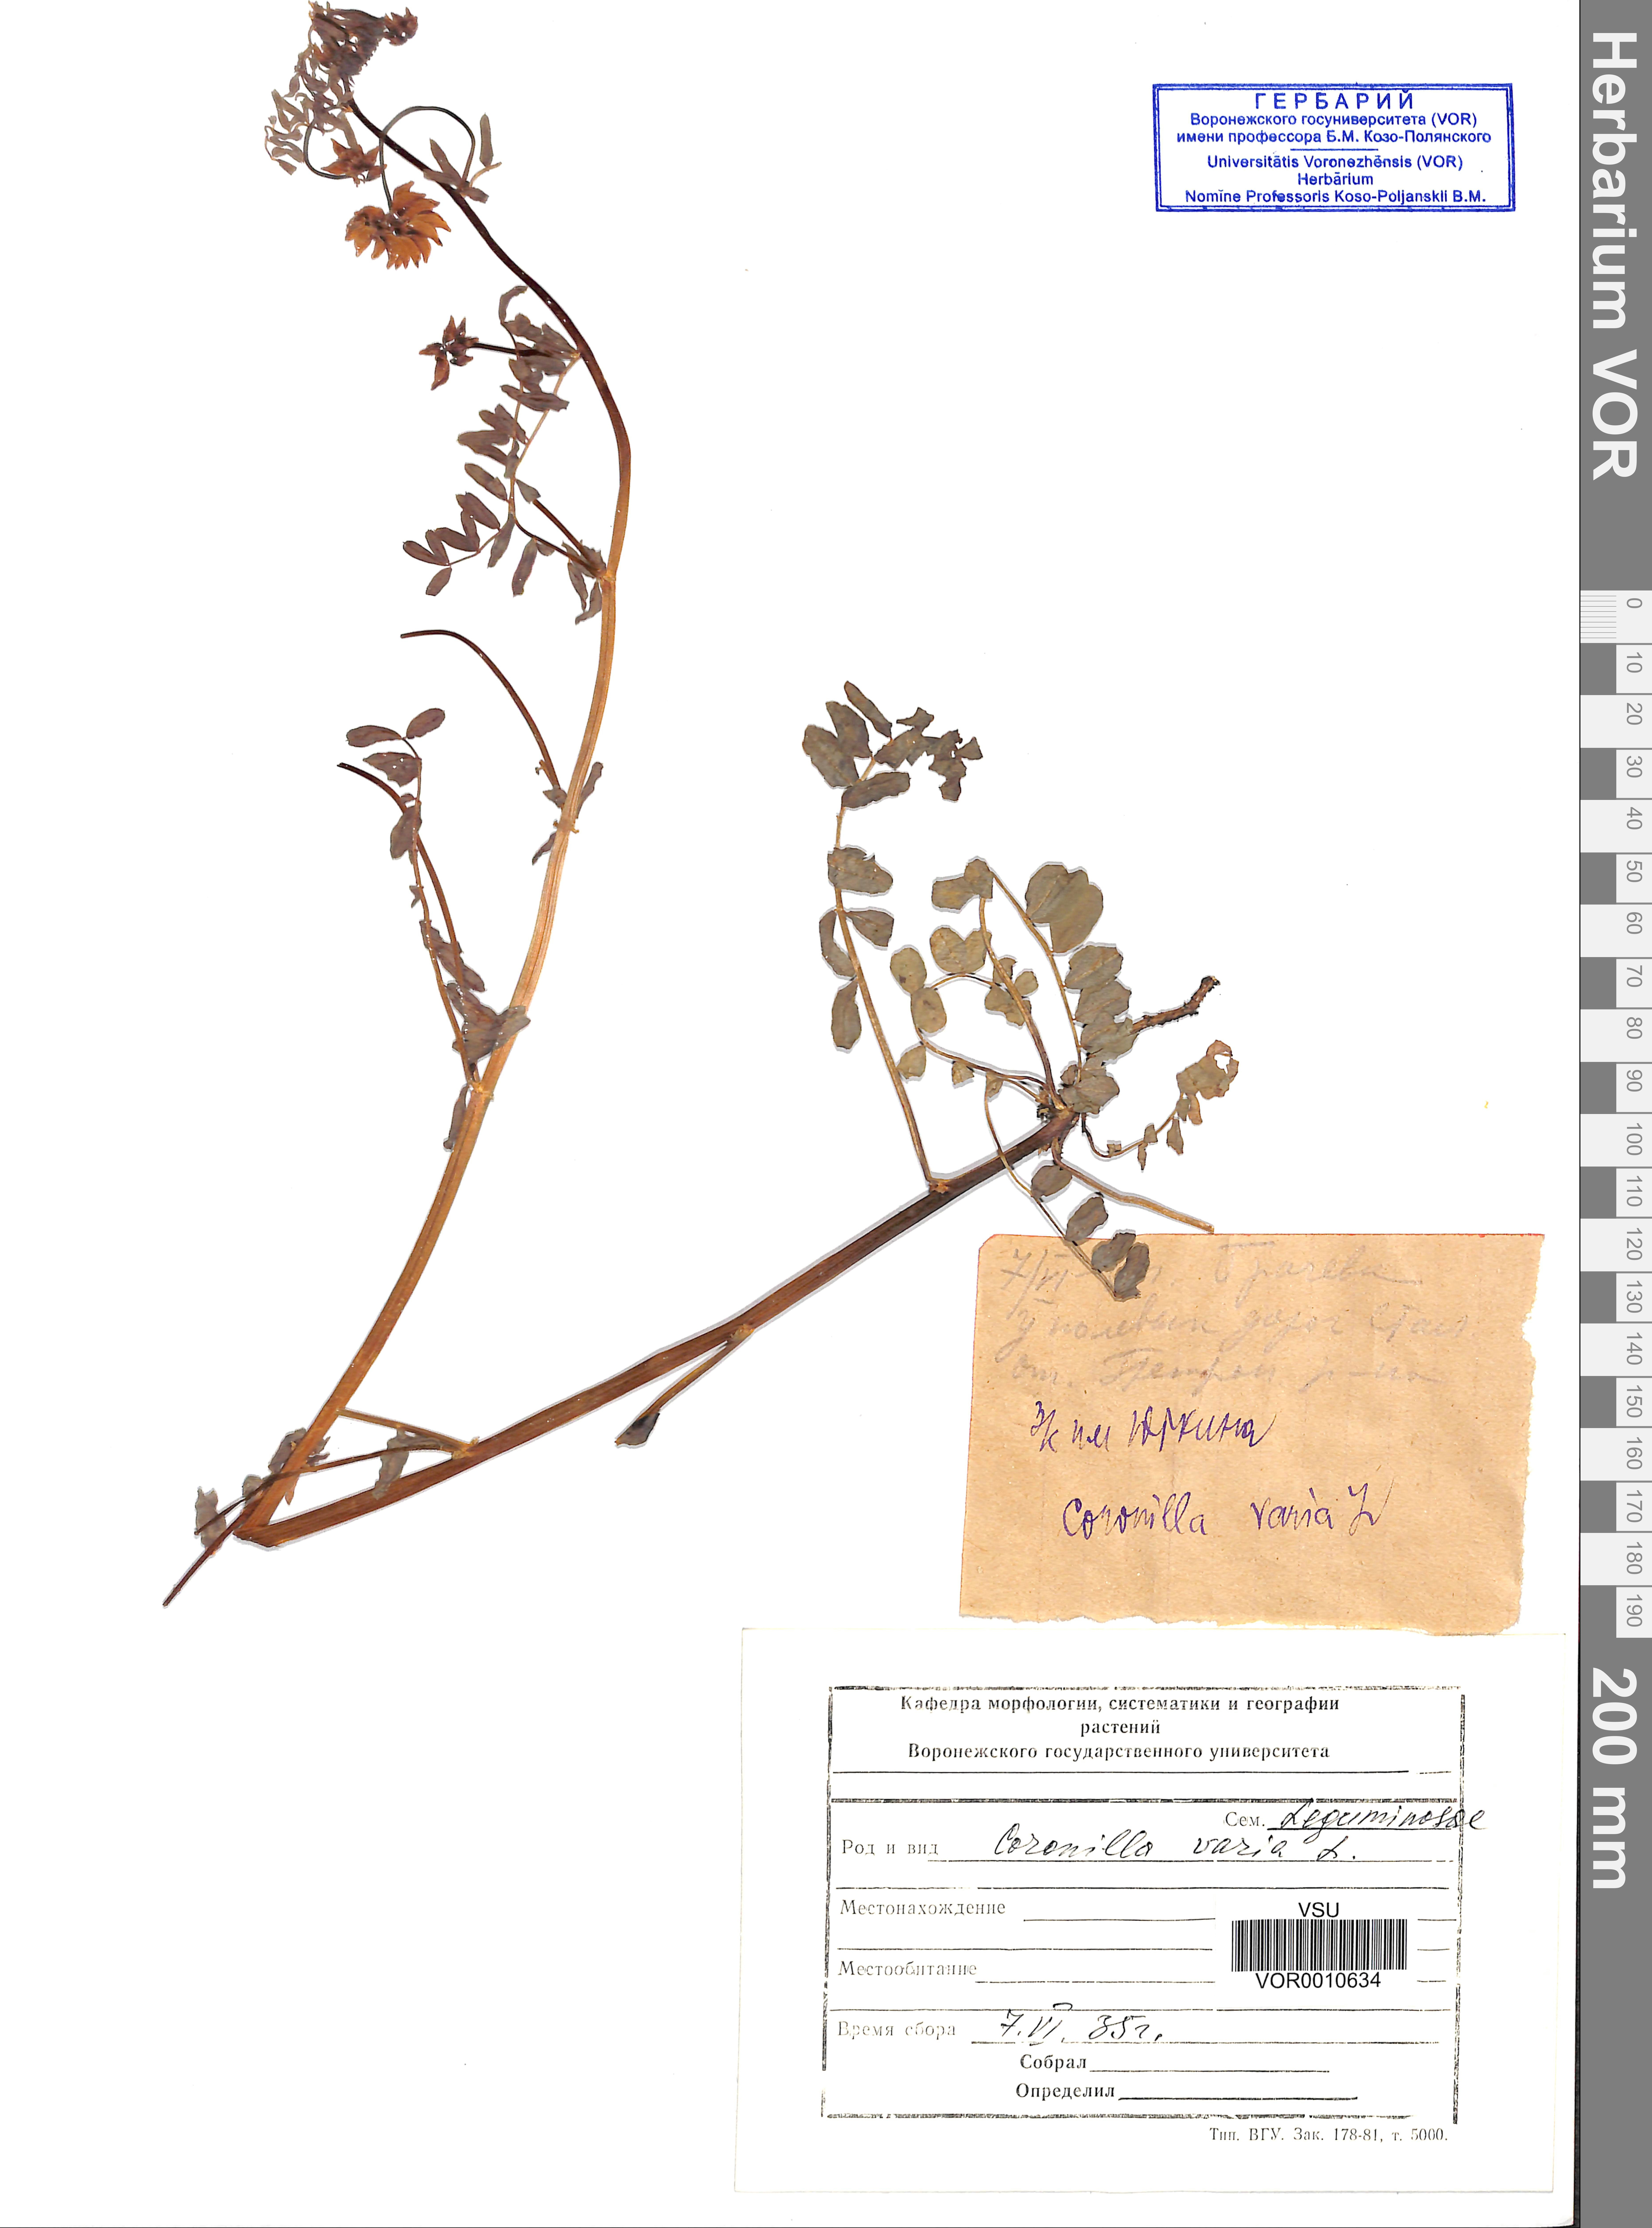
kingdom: Plantae
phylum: Tracheophyta
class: Magnoliopsida
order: Fabales
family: Fabaceae
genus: Coronilla
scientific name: Coronilla varia
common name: Crownvetch
